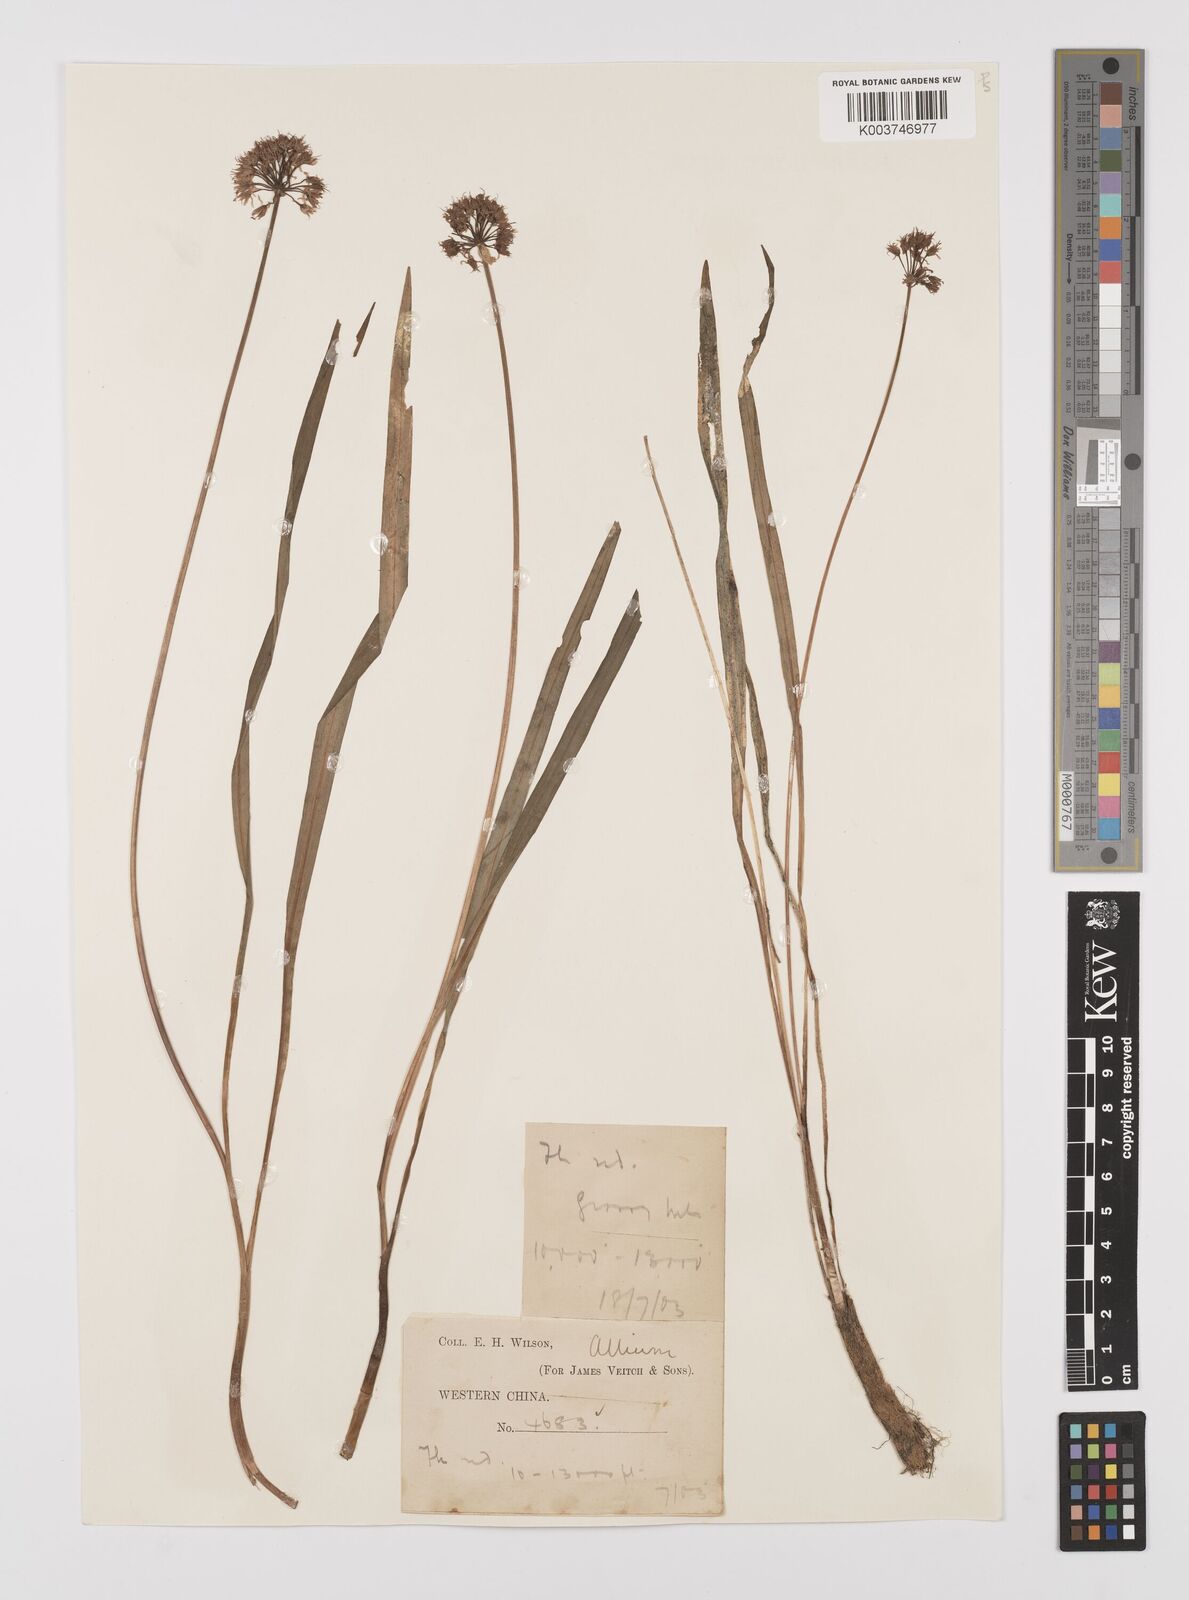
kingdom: Plantae
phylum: Tracheophyta
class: Liliopsida
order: Asparagales
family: Amaryllidaceae
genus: Allium
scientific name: Allium
